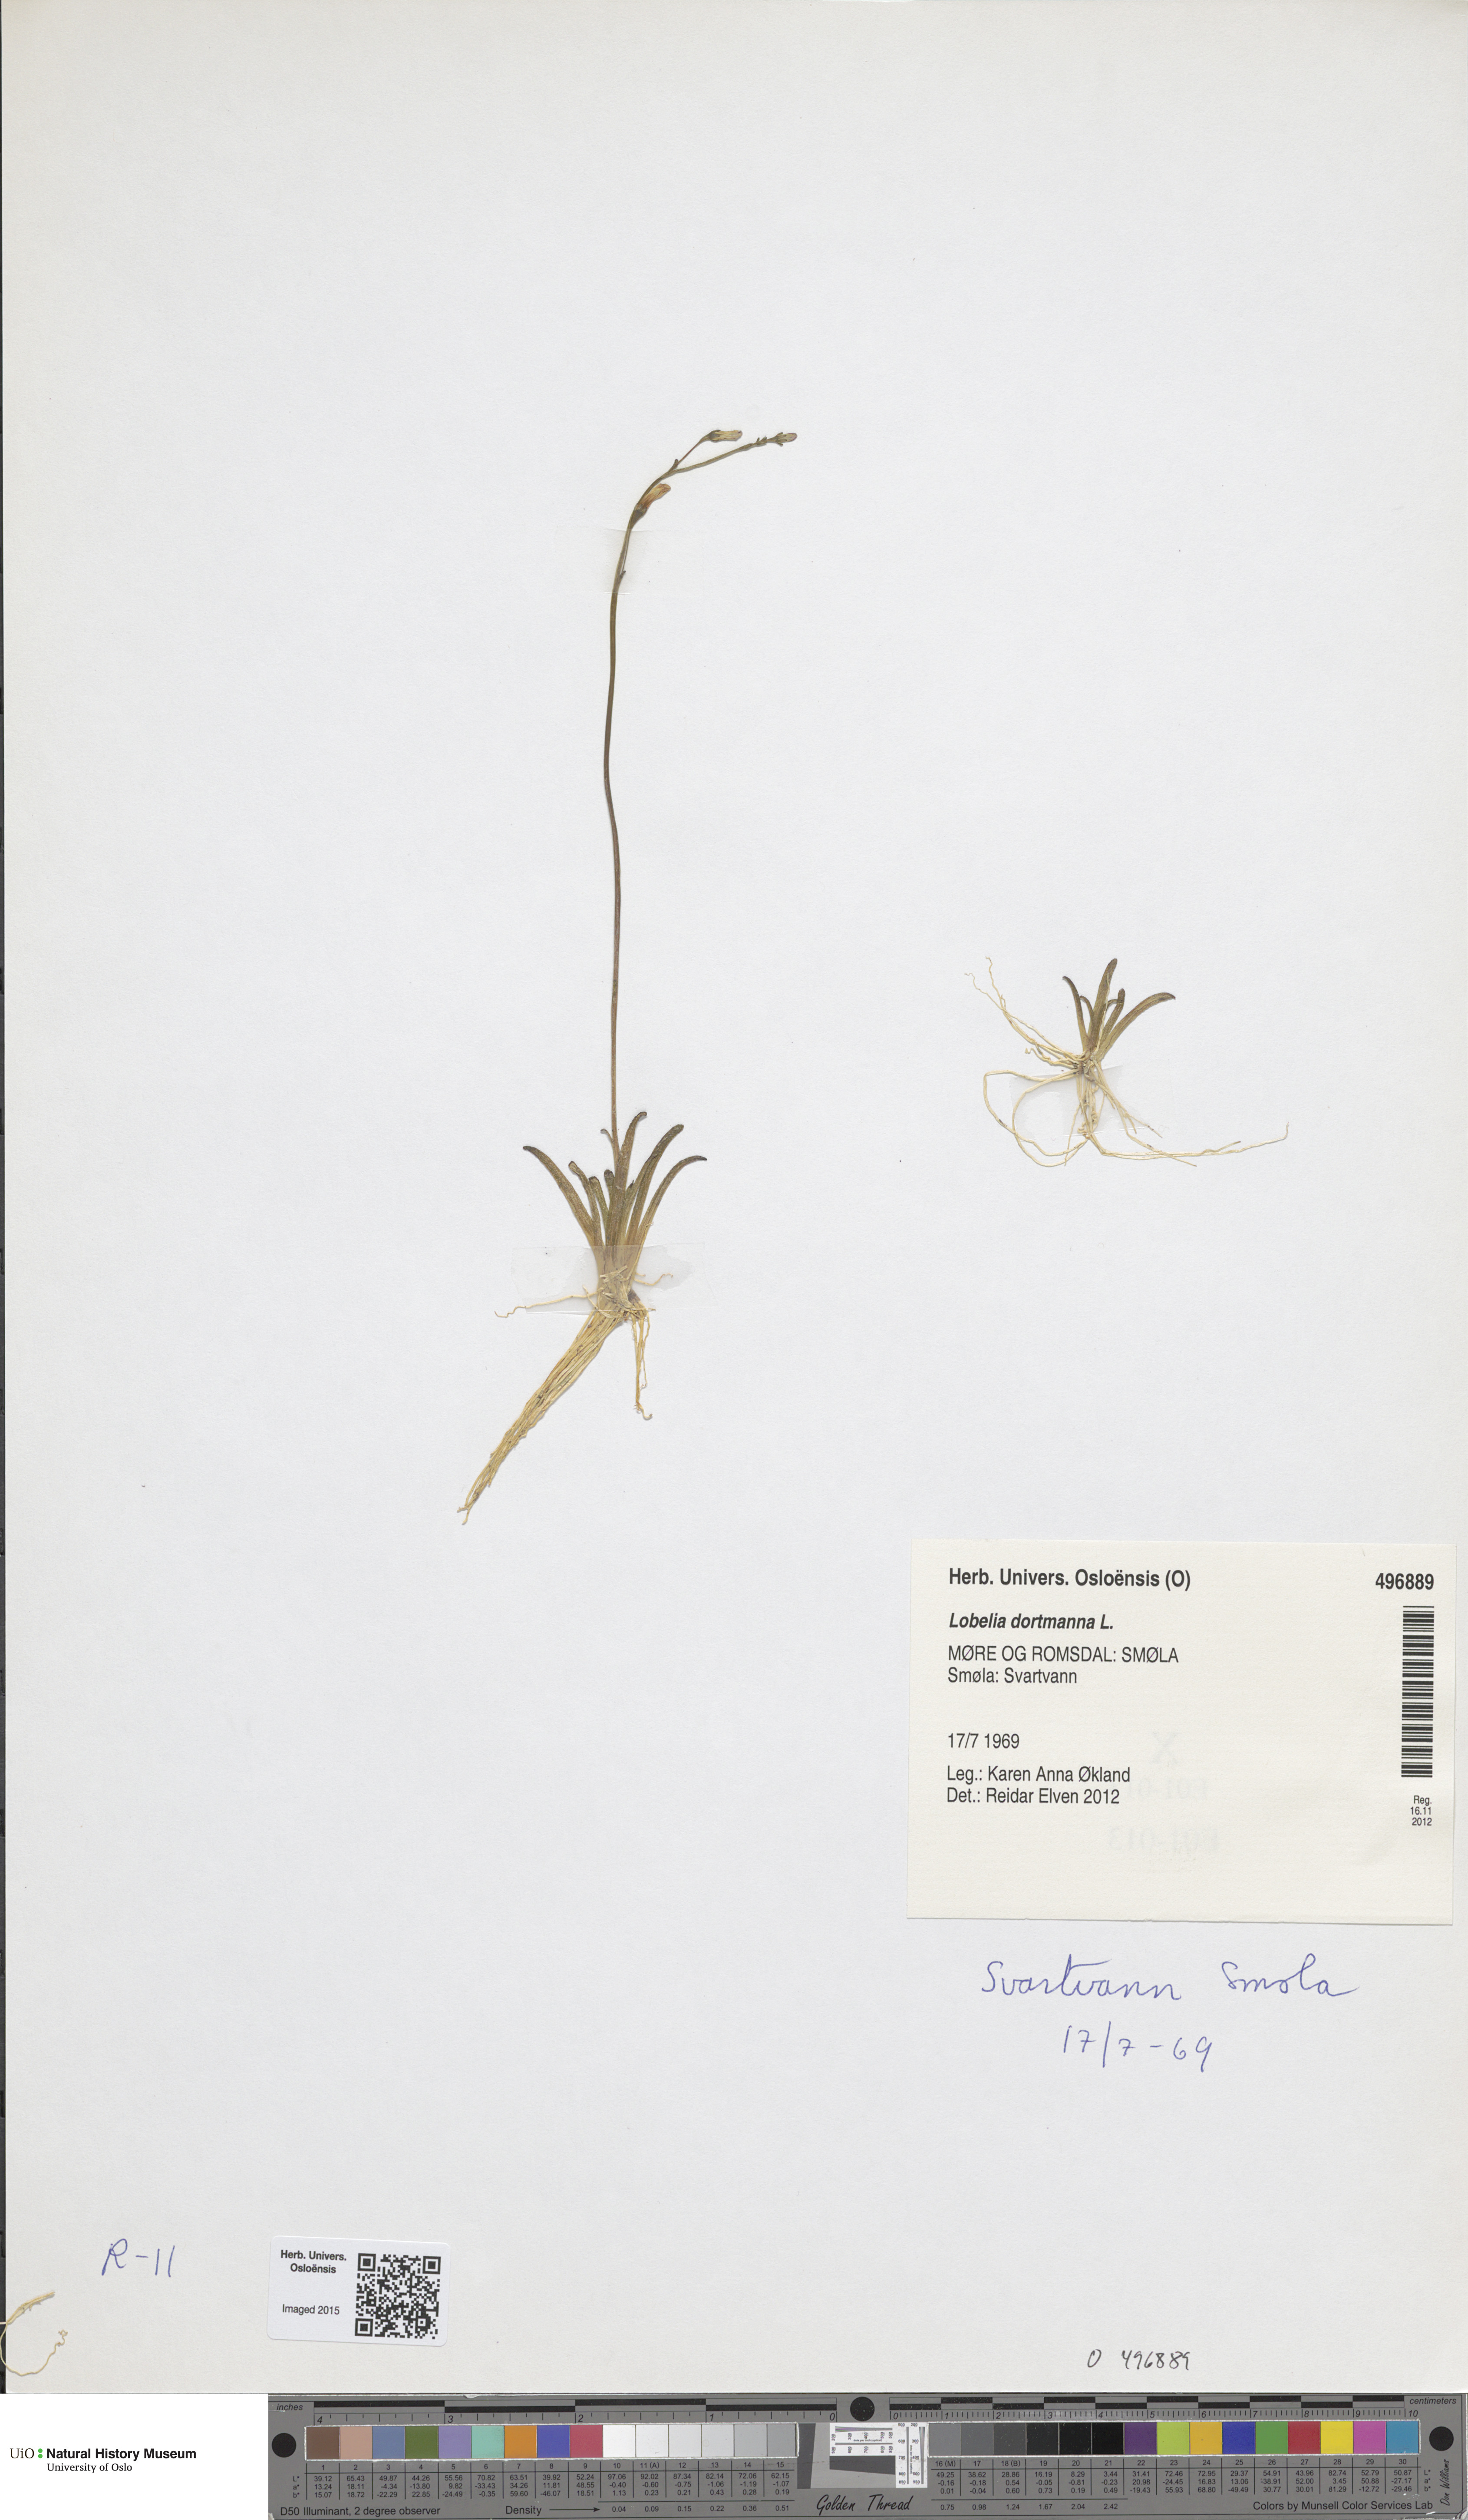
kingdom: Plantae
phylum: Tracheophyta
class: Magnoliopsida
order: Asterales
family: Campanulaceae
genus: Lobelia
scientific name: Lobelia dortmanna
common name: Water lobelia
